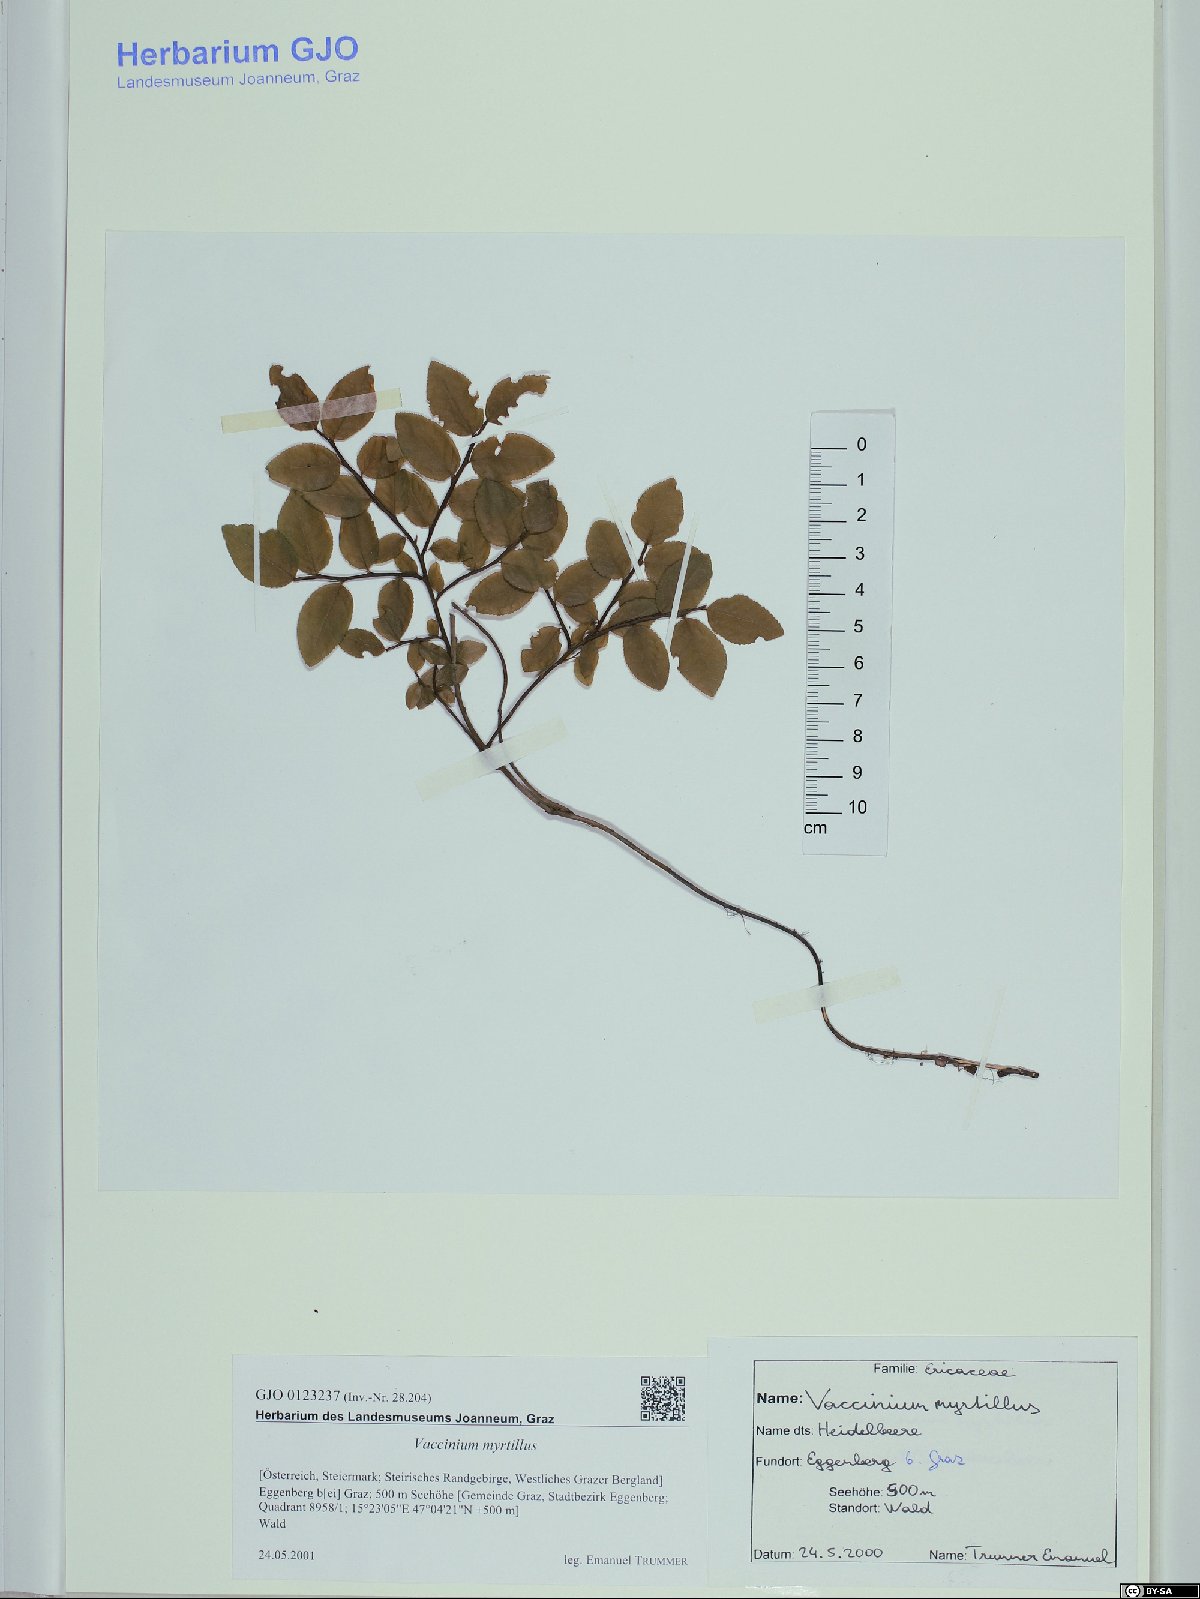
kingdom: Plantae
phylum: Tracheophyta
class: Magnoliopsida
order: Ericales
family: Ericaceae
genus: Vaccinium
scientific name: Vaccinium myrtillus
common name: Bilberry
